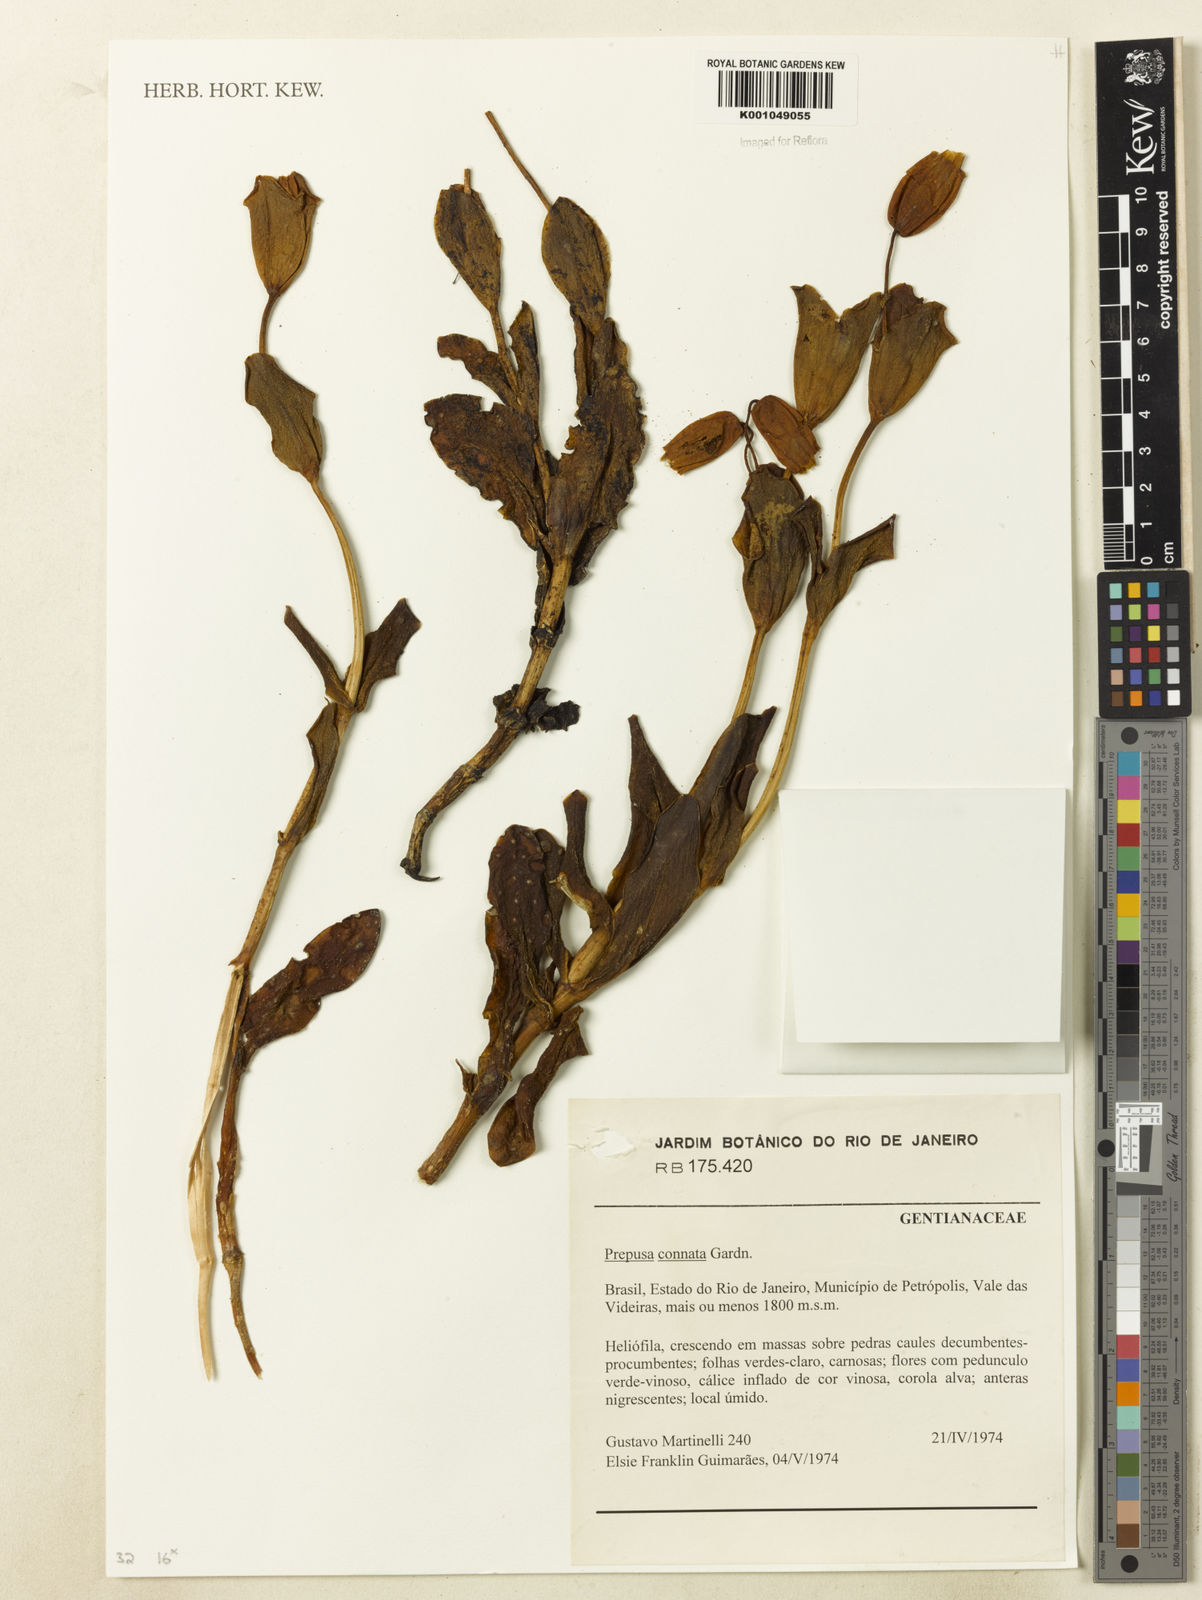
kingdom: Plantae
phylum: Tracheophyta
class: Magnoliopsida
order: Gentianales
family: Gentianaceae
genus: Prepusa
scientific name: Prepusa connata
